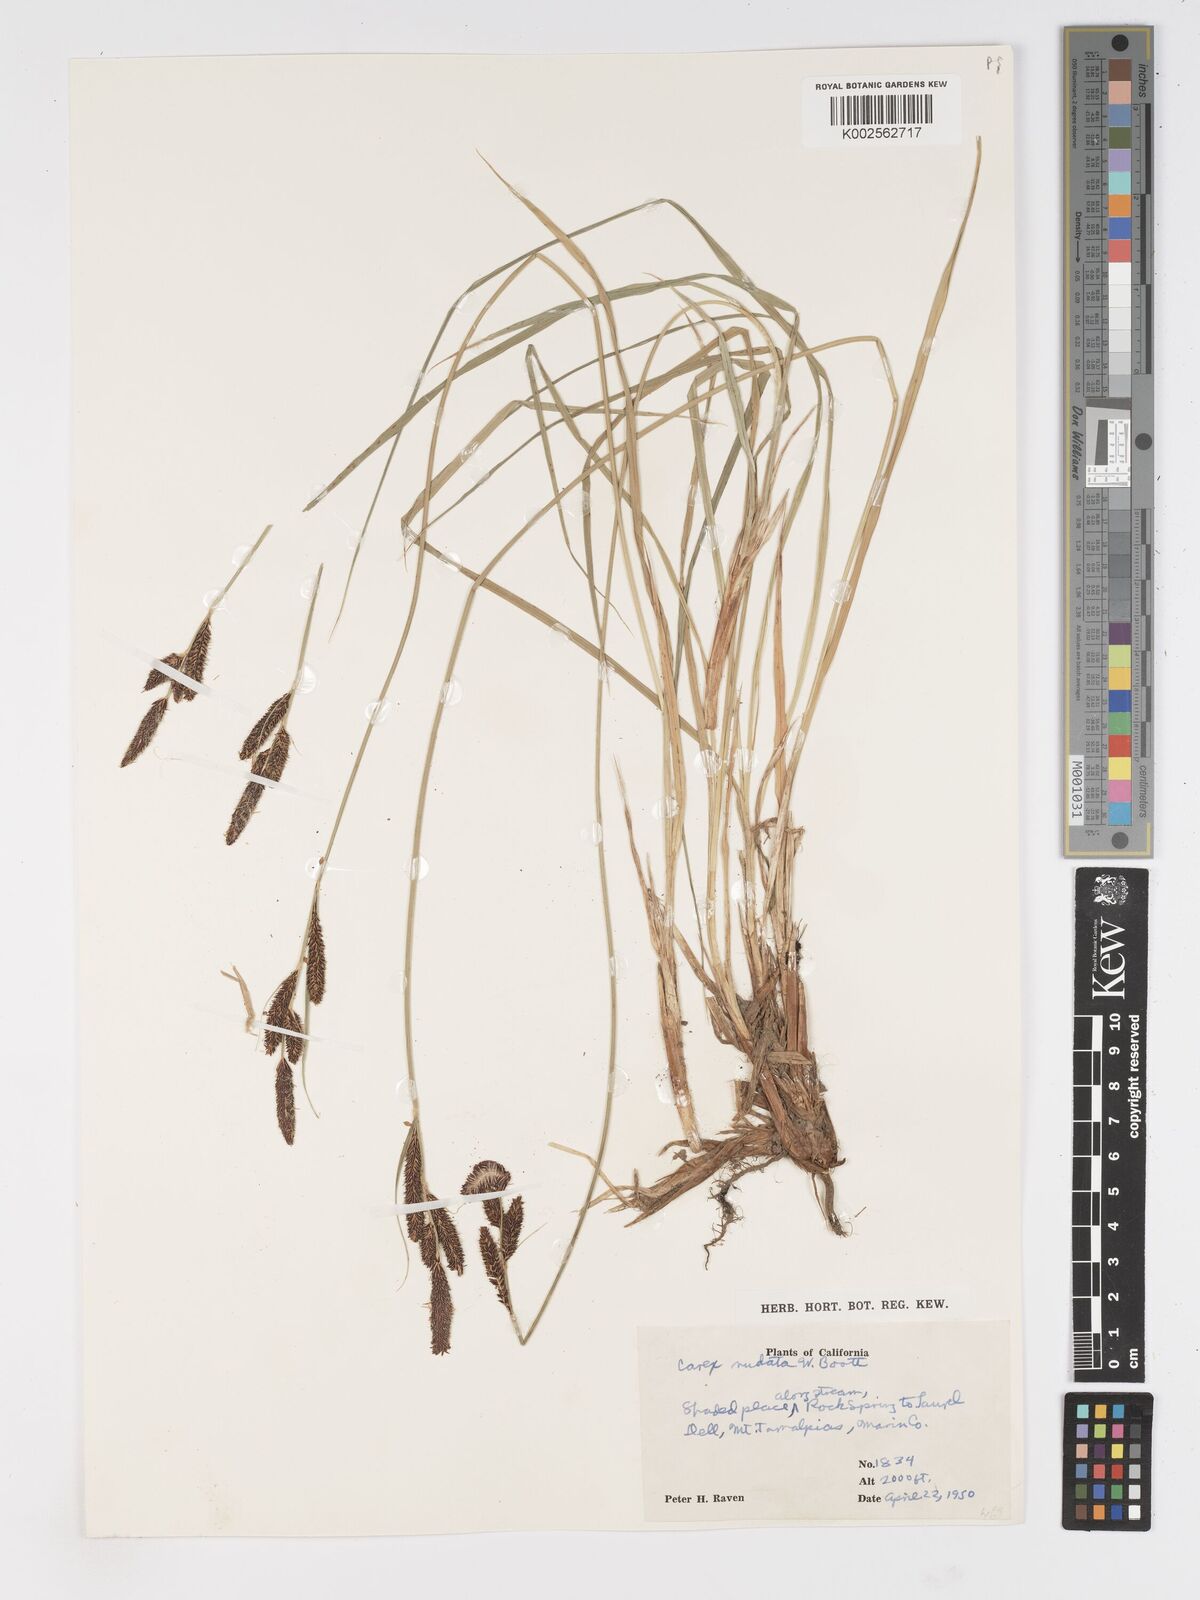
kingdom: Plantae
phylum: Tracheophyta
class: Liliopsida
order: Poales
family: Cyperaceae
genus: Carex
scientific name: Carex nudata
